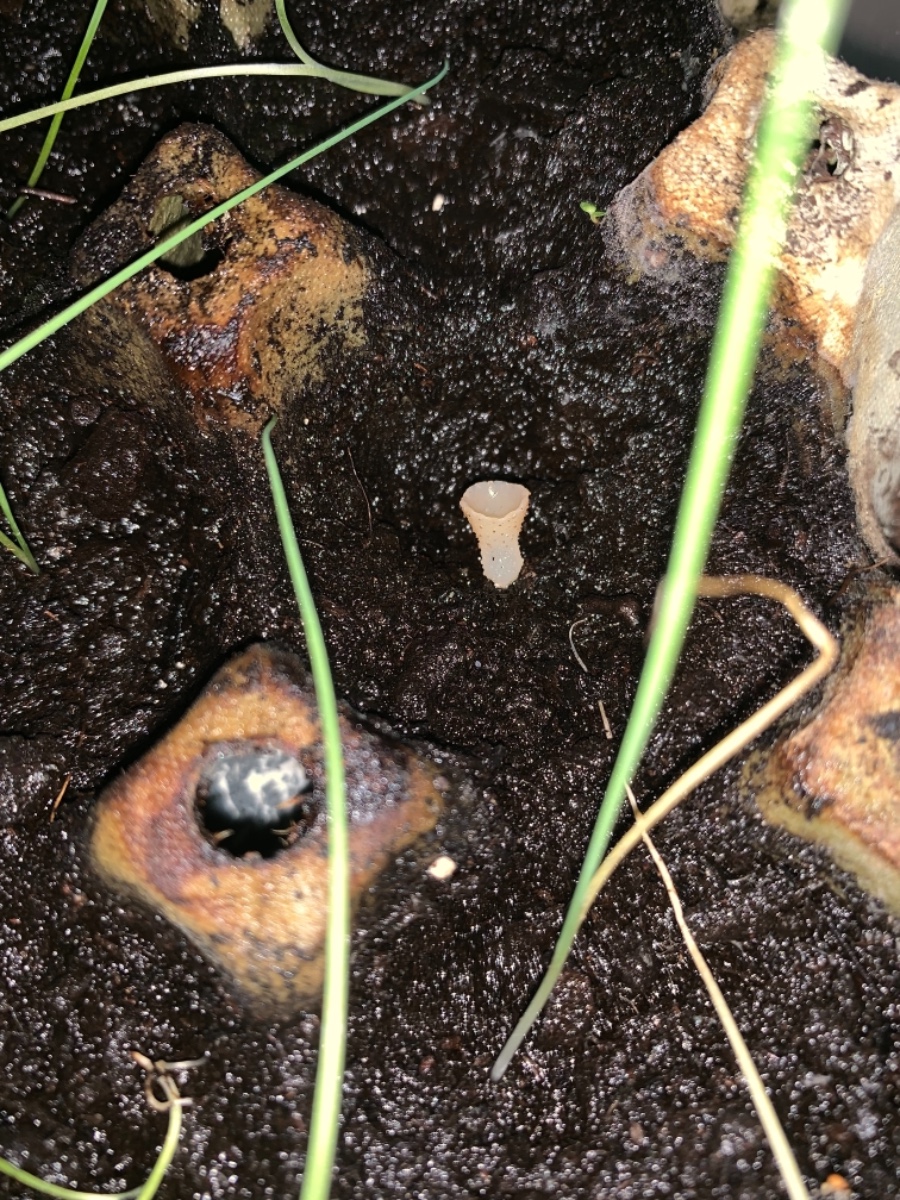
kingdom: Fungi
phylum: Ascomycota
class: Pezizomycetes
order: Pezizales
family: Pezizaceae
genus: Peziza
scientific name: Peziza
